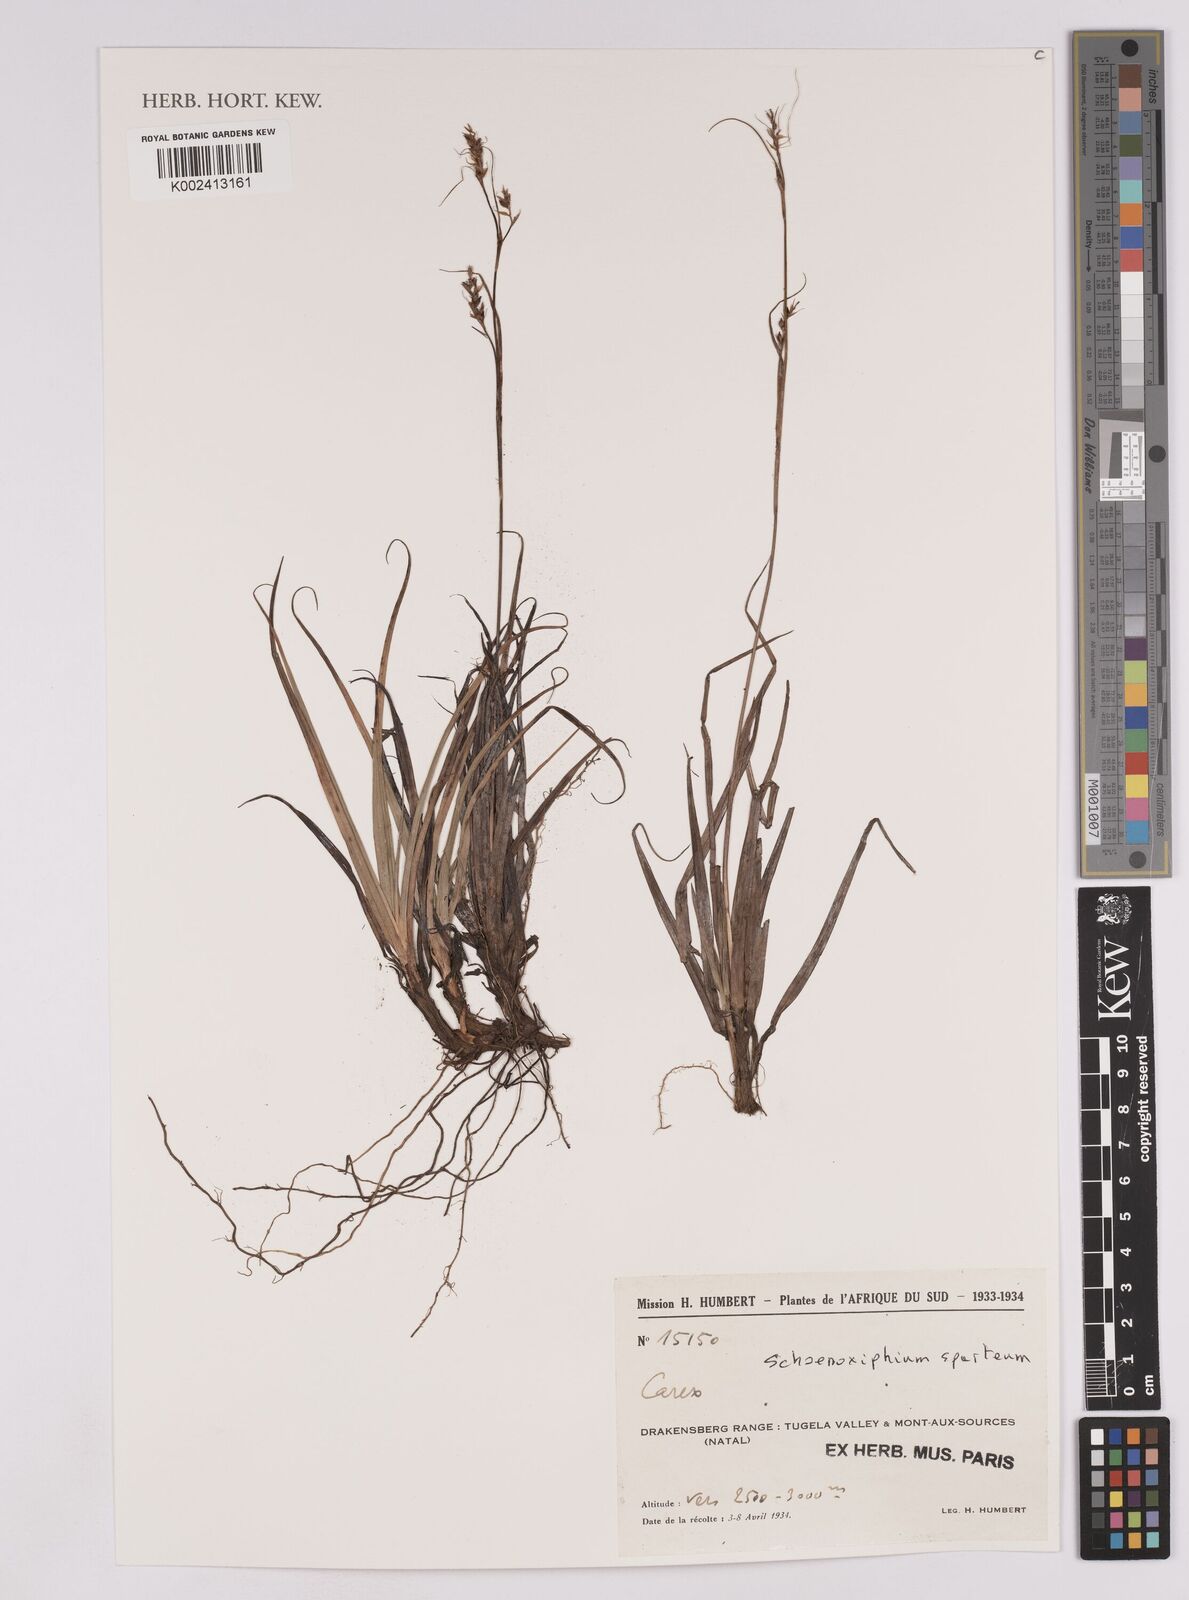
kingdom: Plantae
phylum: Tracheophyta
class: Liliopsida
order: Poales
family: Cyperaceae
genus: Carex
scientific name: Carex spartea
